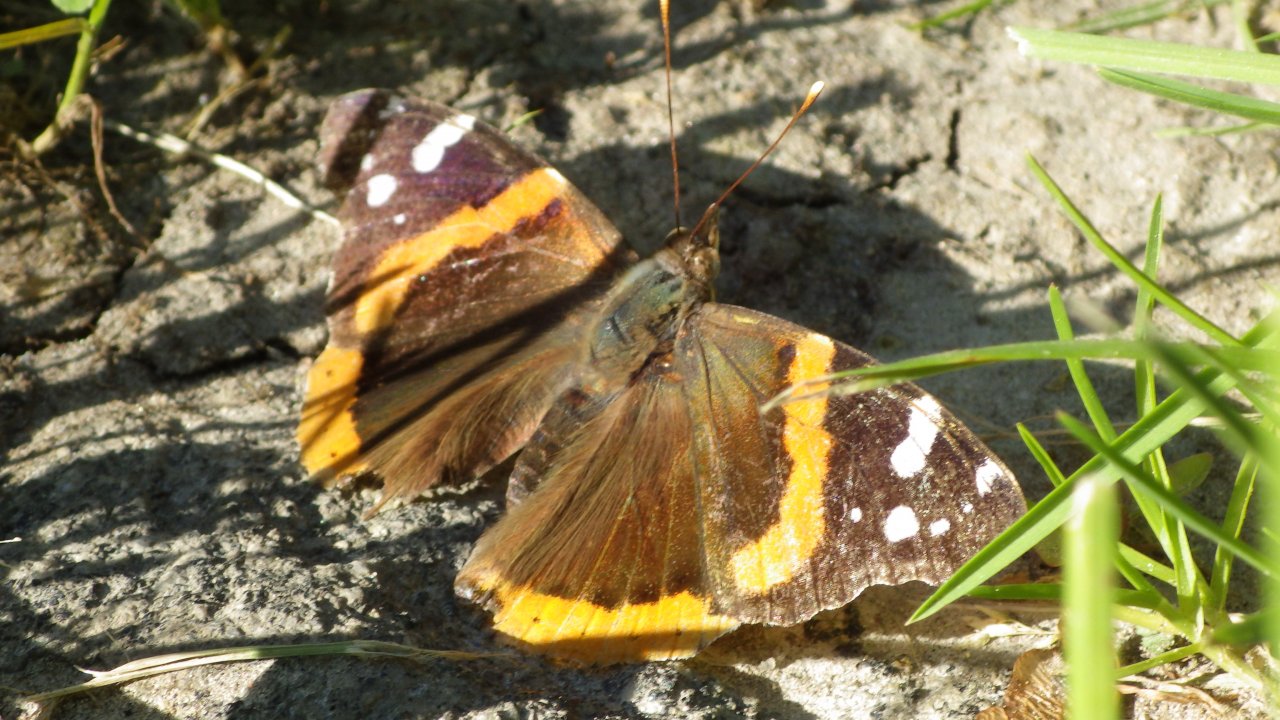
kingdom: Animalia
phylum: Arthropoda
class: Insecta
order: Lepidoptera
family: Nymphalidae
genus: Vanessa
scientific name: Vanessa atalanta
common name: Red Admiral
